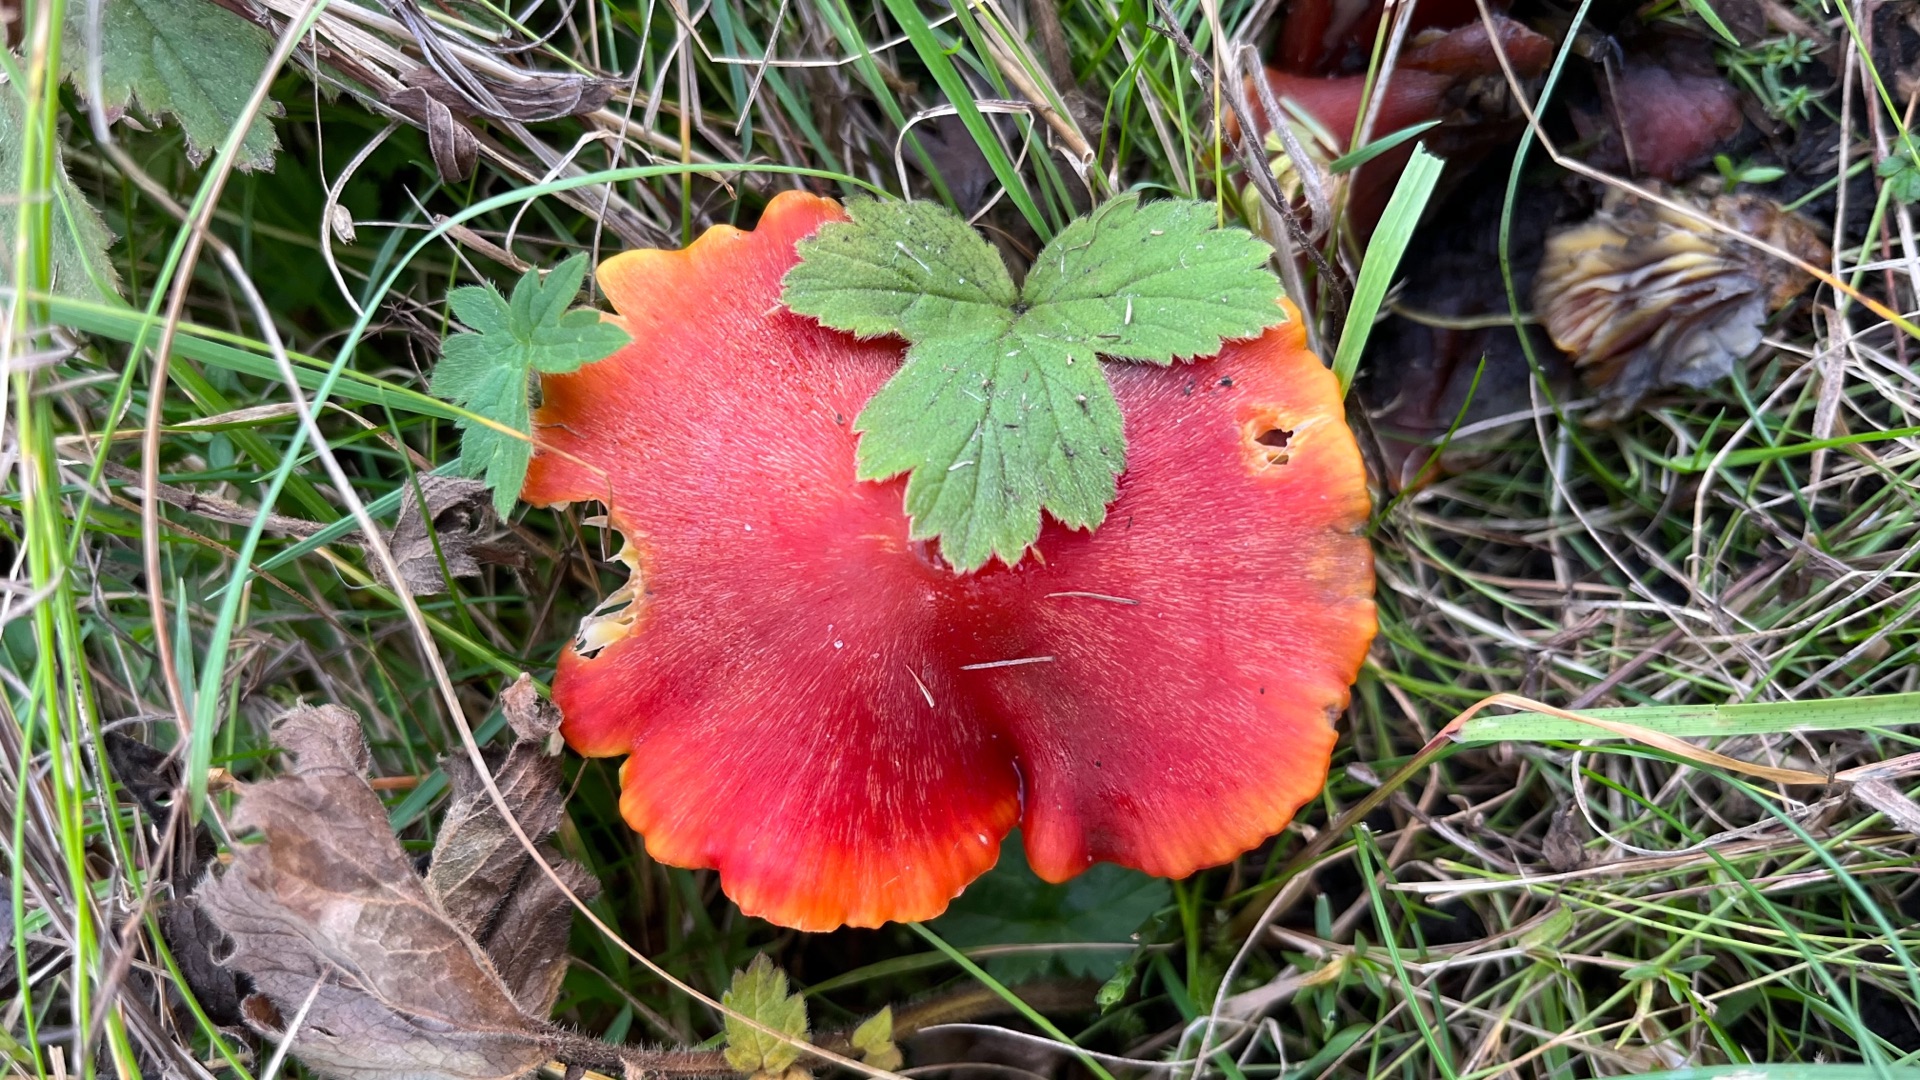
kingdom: Fungi
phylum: Basidiomycota
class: Agaricomycetes
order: Agaricales
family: Hygrophoraceae
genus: Hygrocybe
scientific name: Hygrocybe conica
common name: Kegle-vokshat
